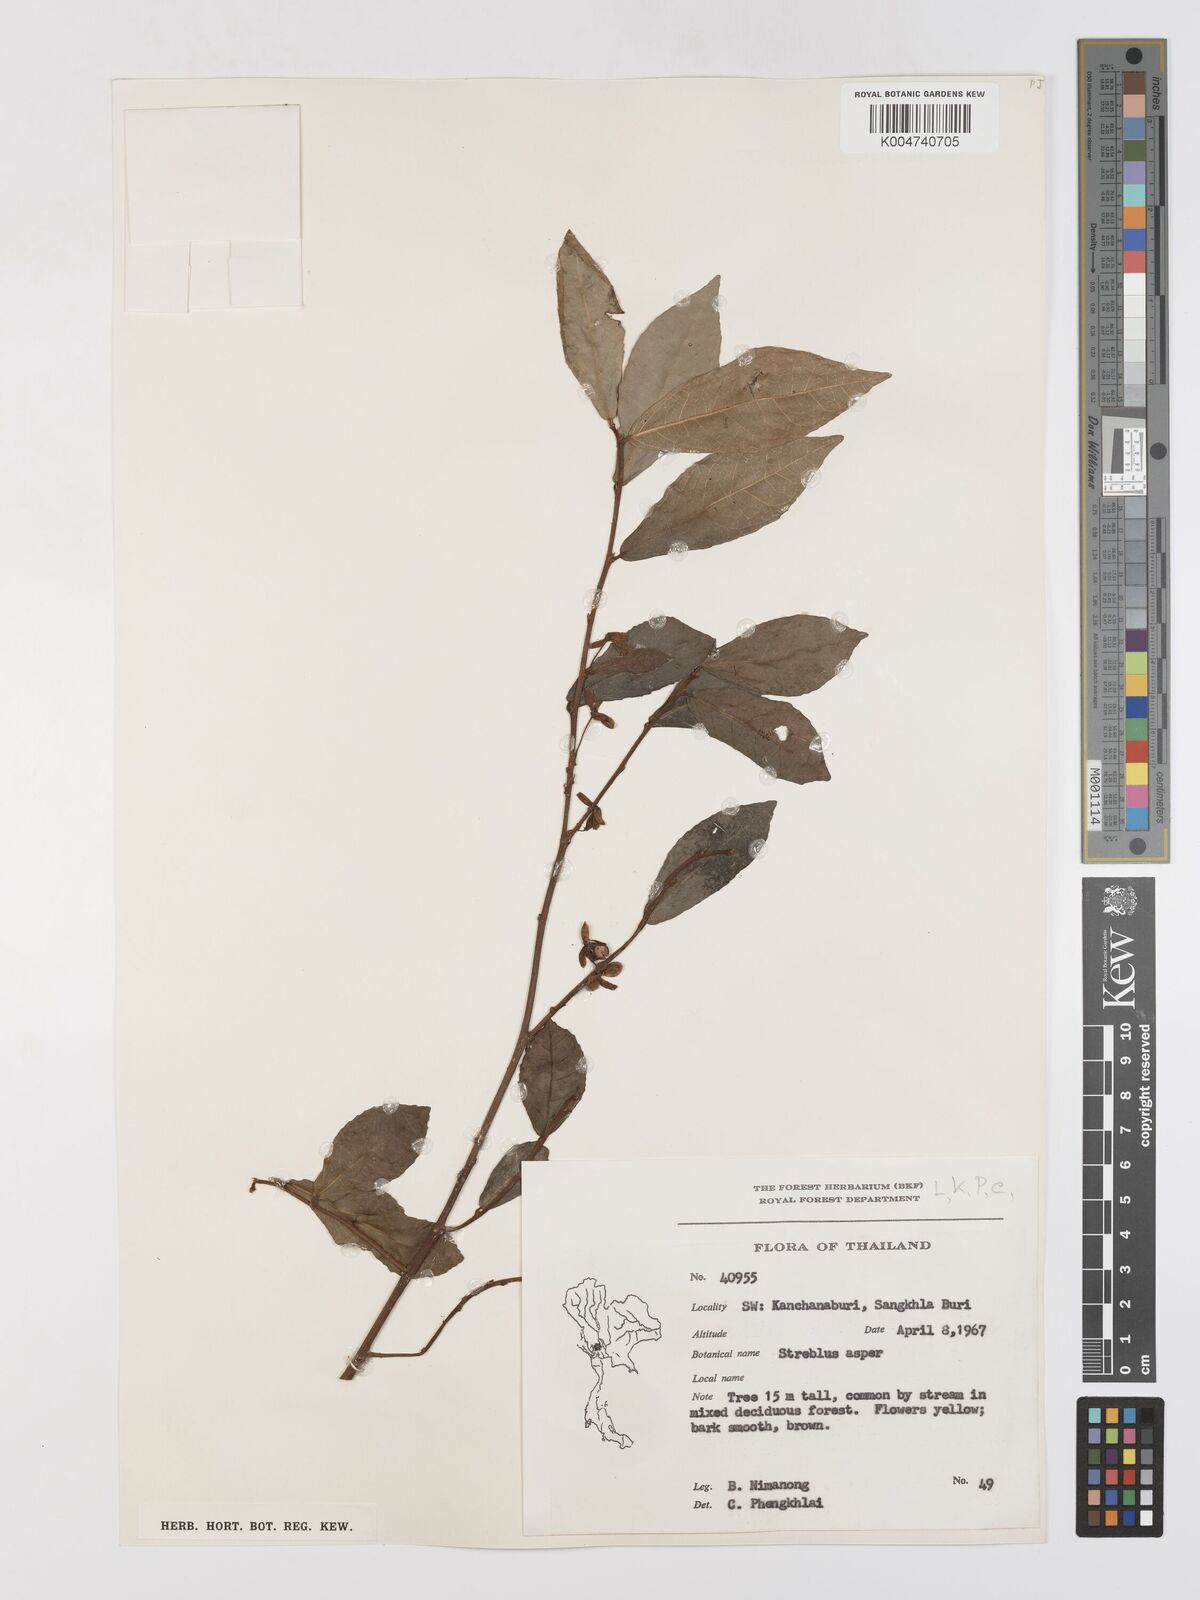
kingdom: Plantae
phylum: Tracheophyta
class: Magnoliopsida
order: Rosales
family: Moraceae
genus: Streblus
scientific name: Streblus asper
